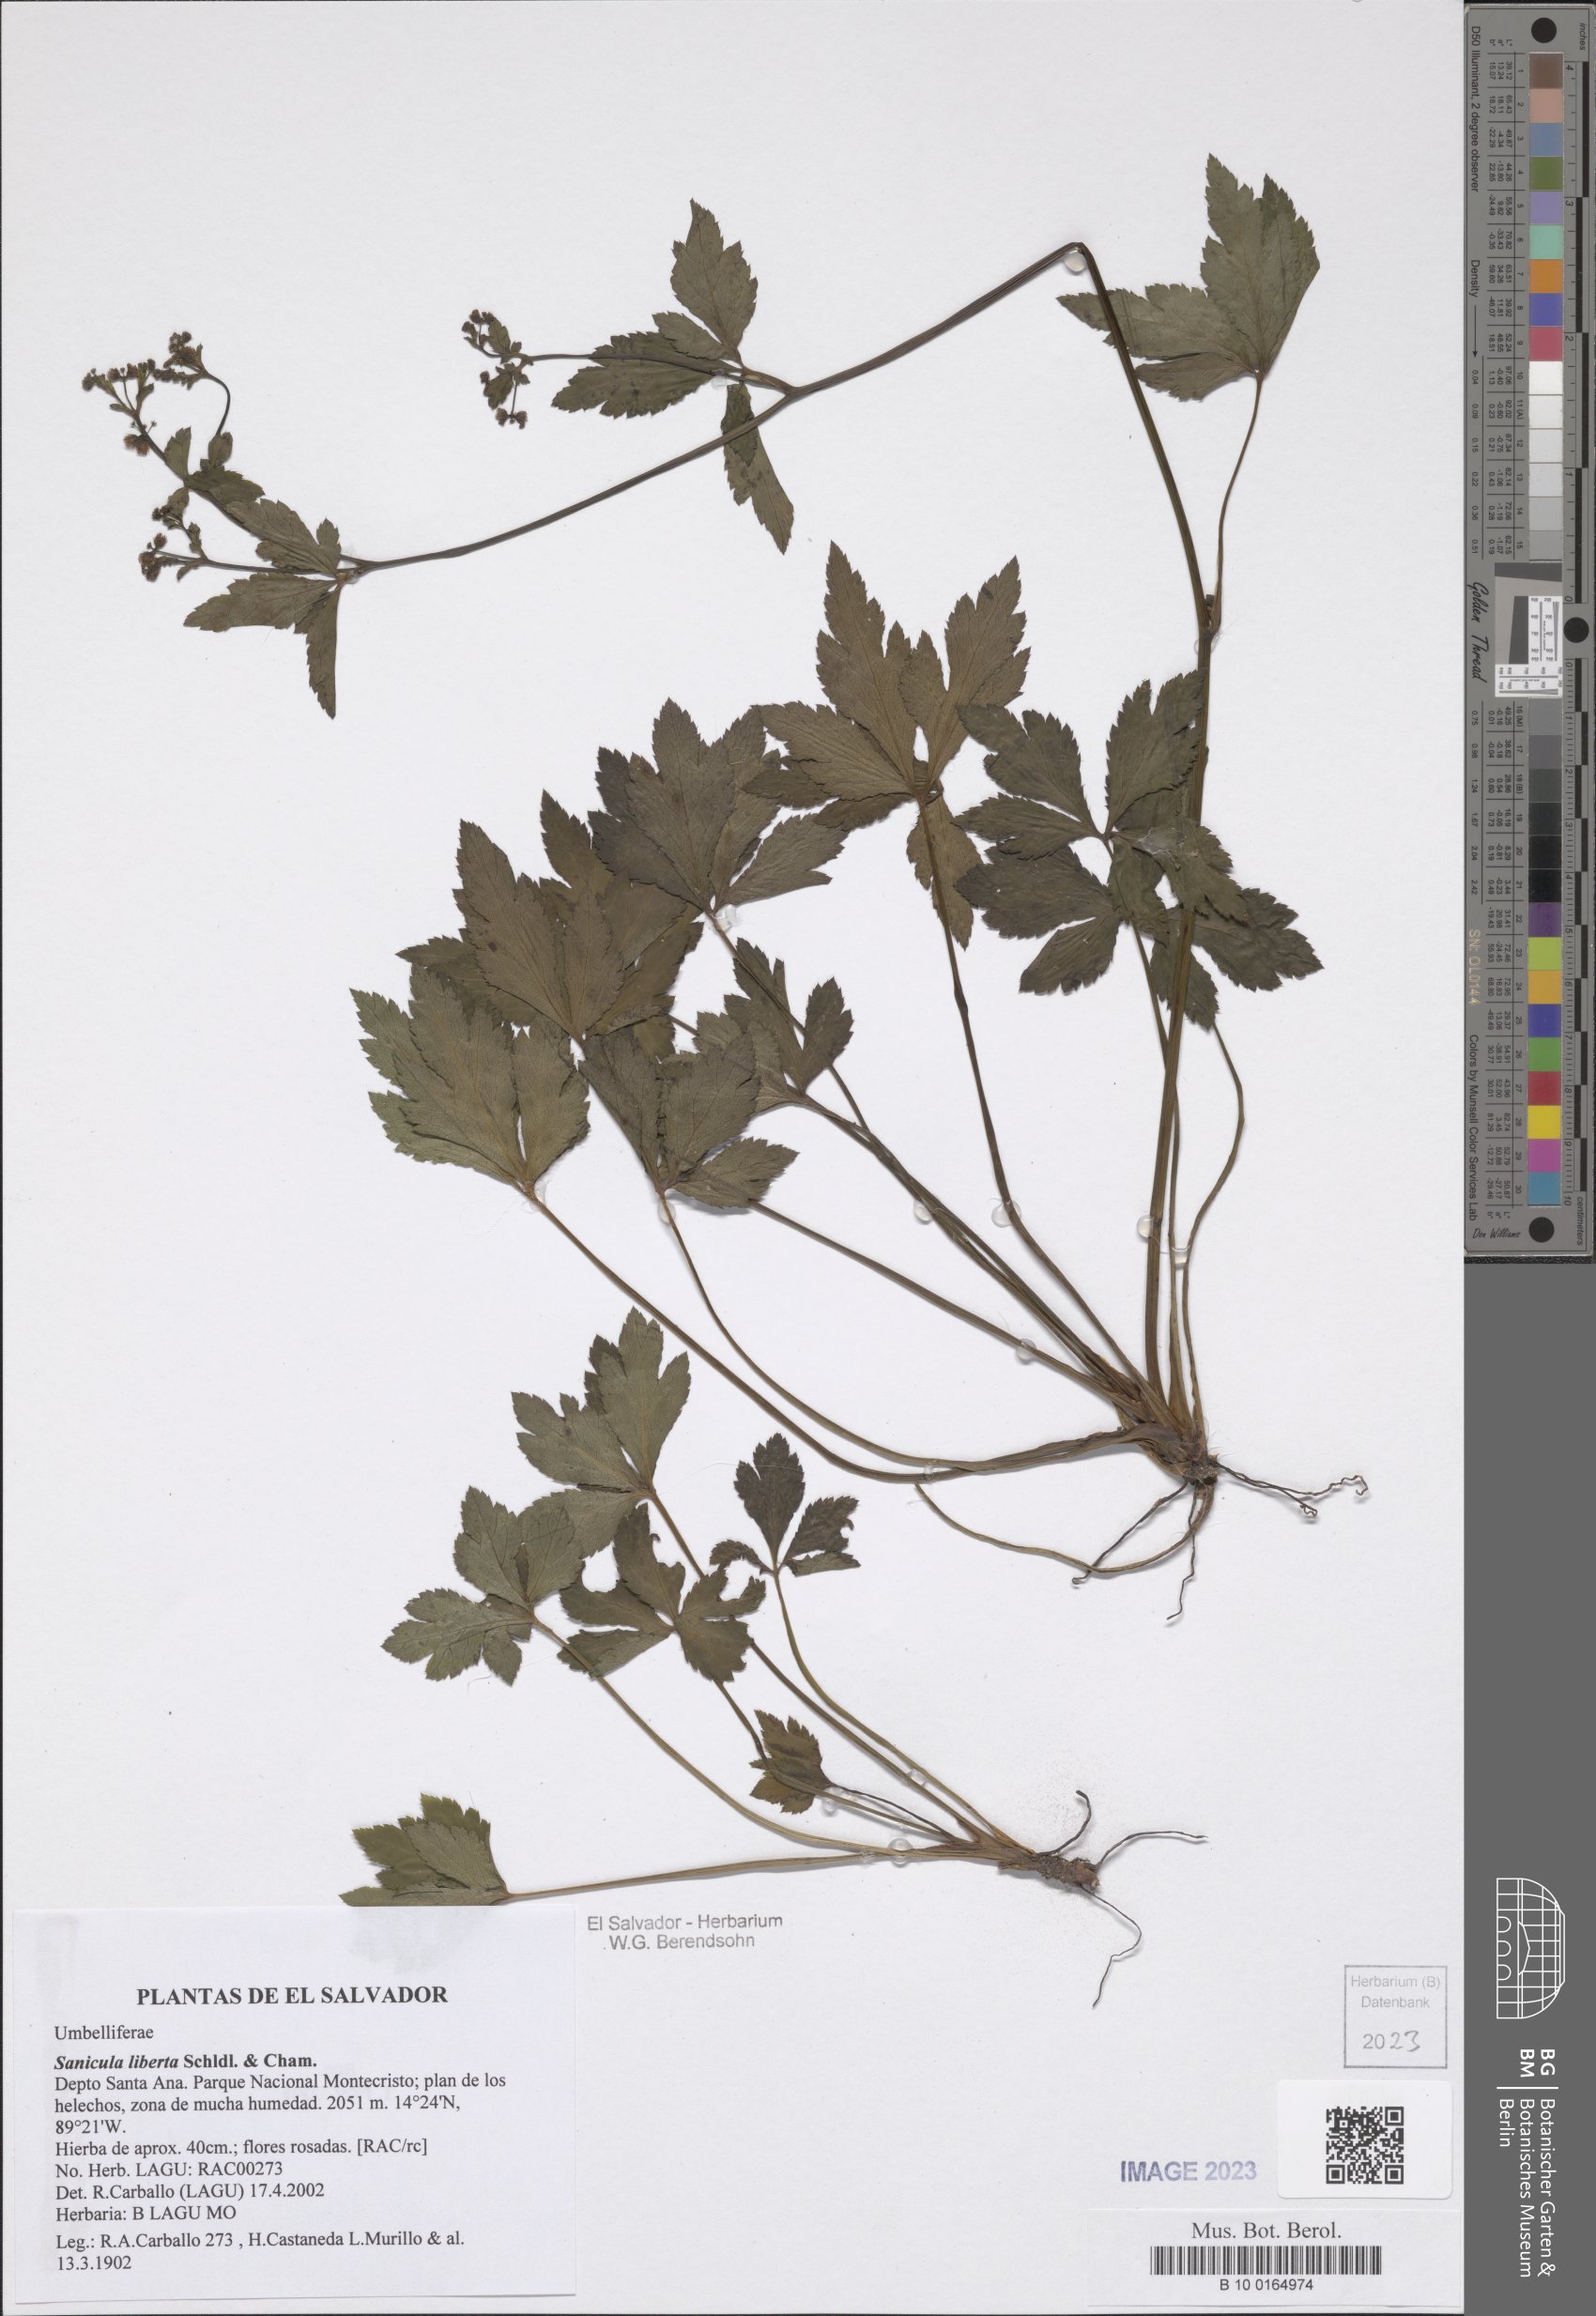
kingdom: Plantae
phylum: Tracheophyta
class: Magnoliopsida
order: Apiales
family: Apiaceae
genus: Sanicula
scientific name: Sanicula liberta
